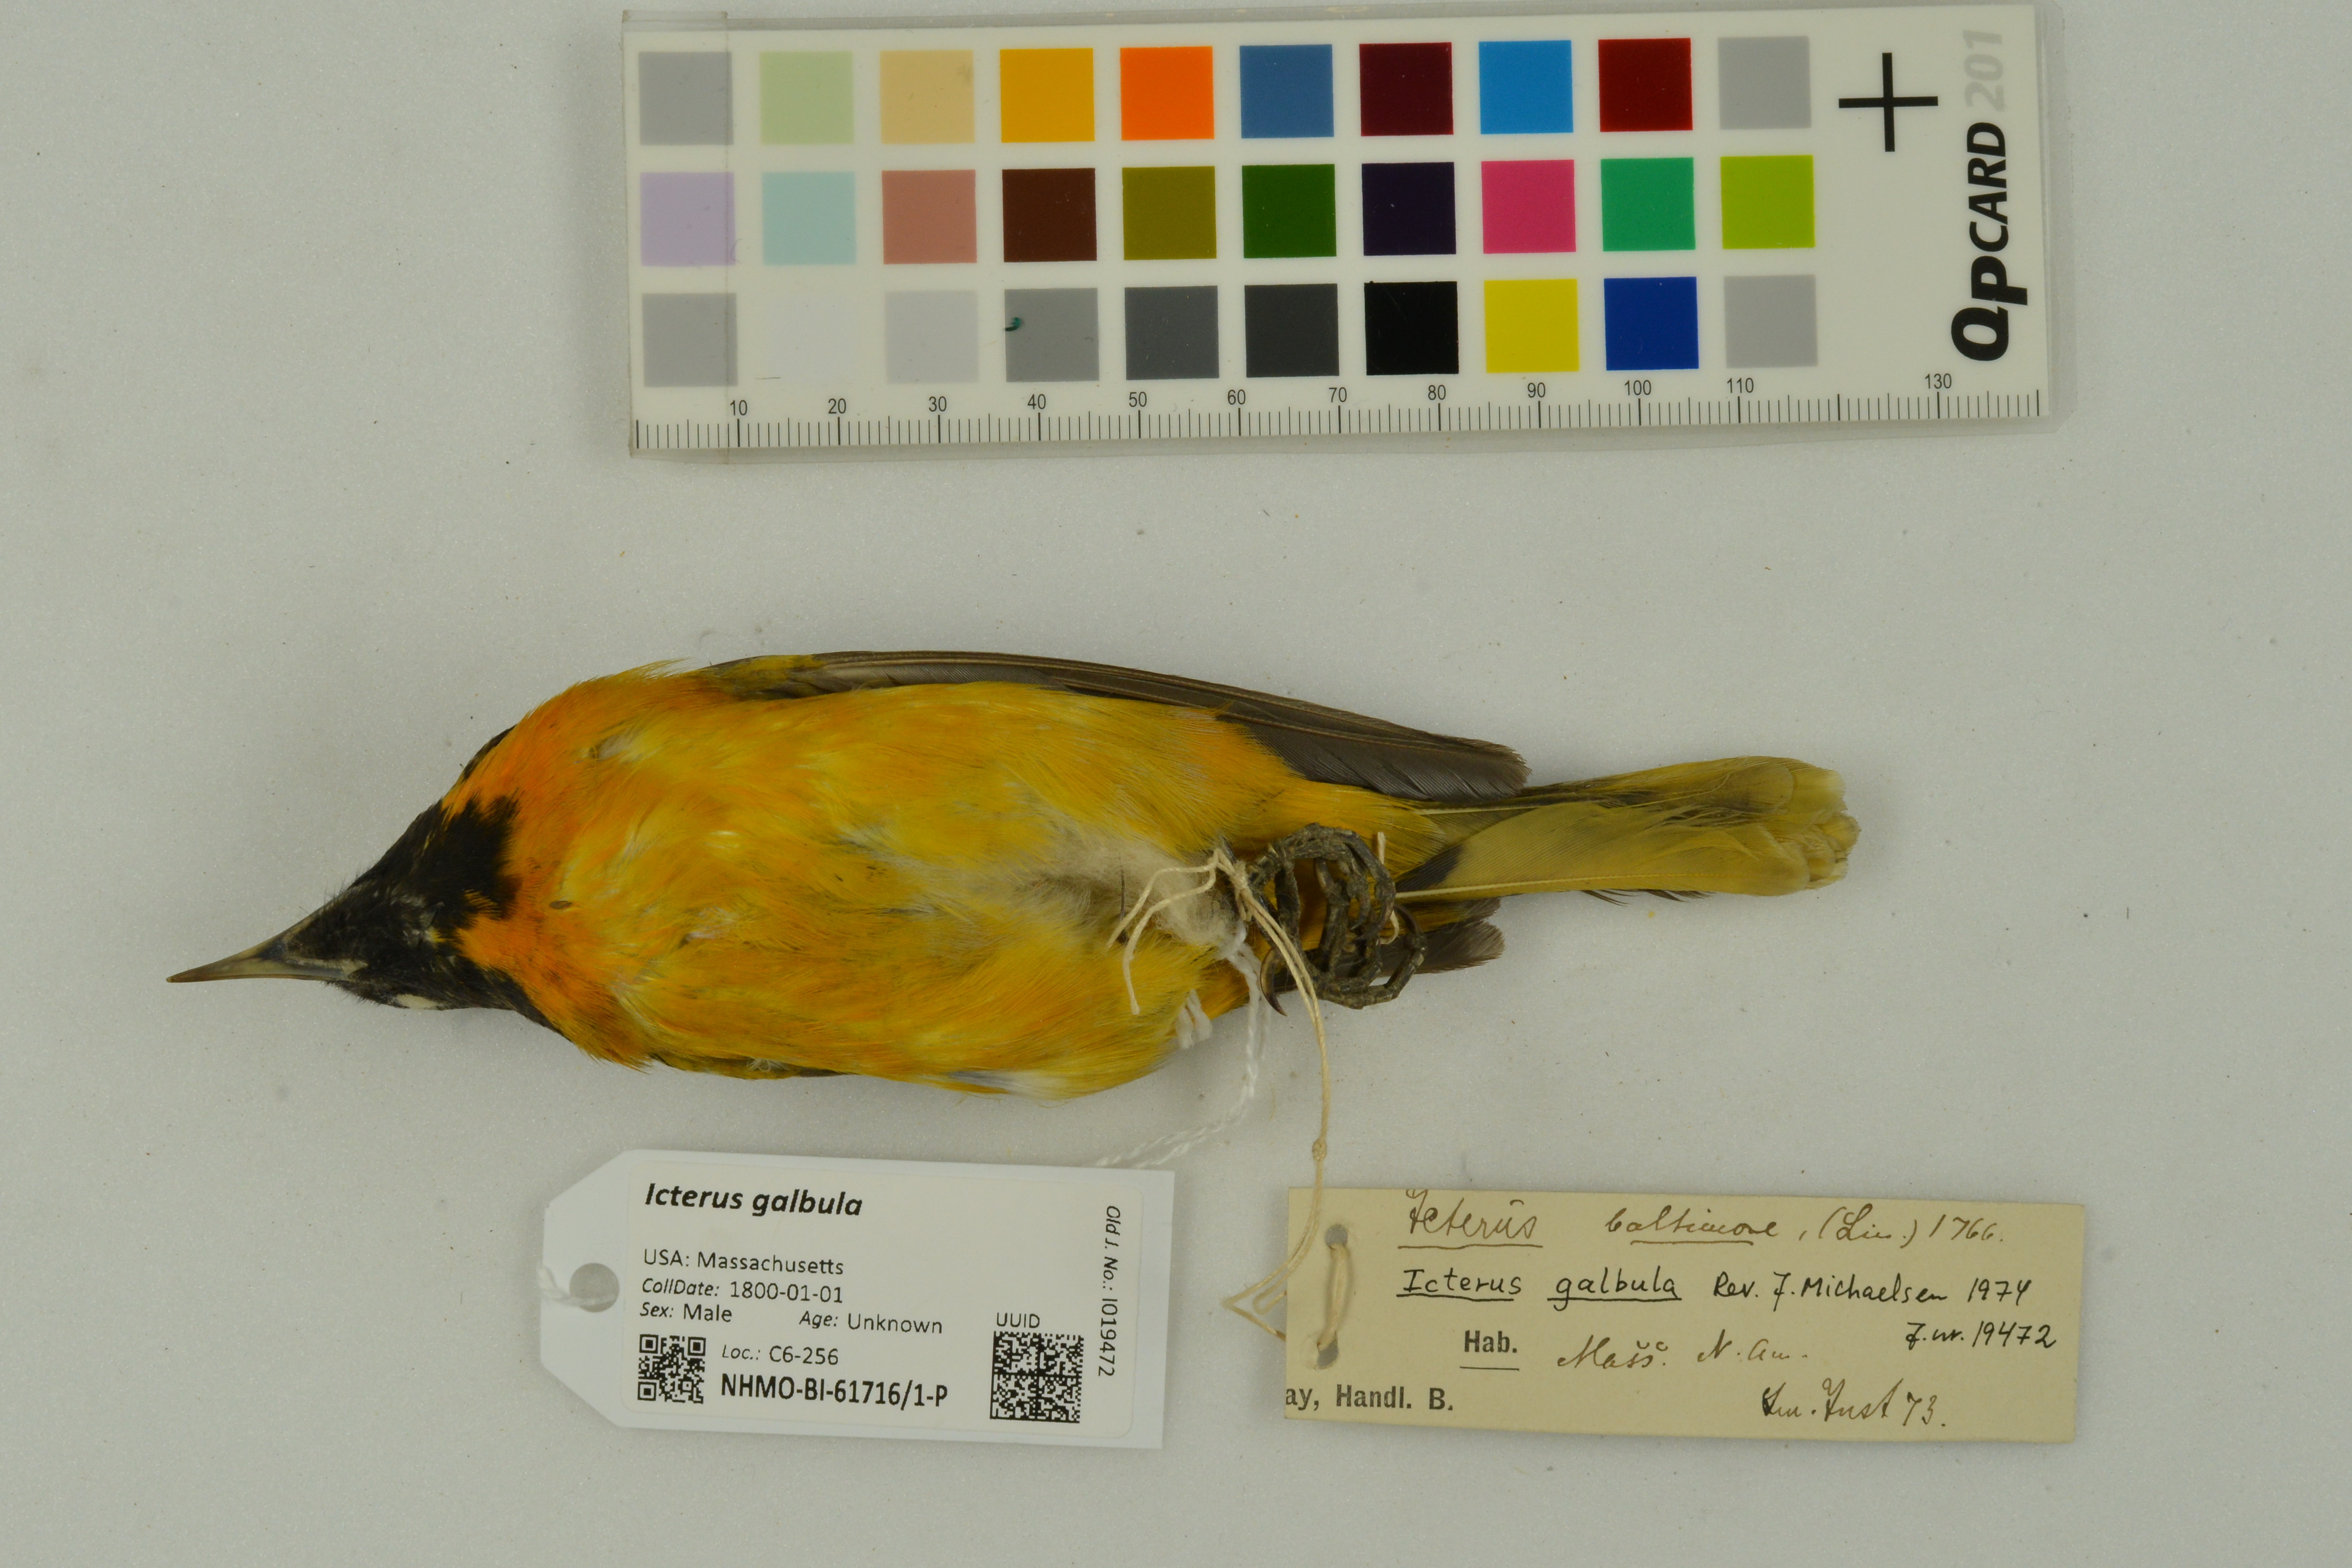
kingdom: Animalia
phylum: Chordata
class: Aves
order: Passeriformes
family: Icteridae
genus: Icterus
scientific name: Icterus galbula
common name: Baltimore oriole
